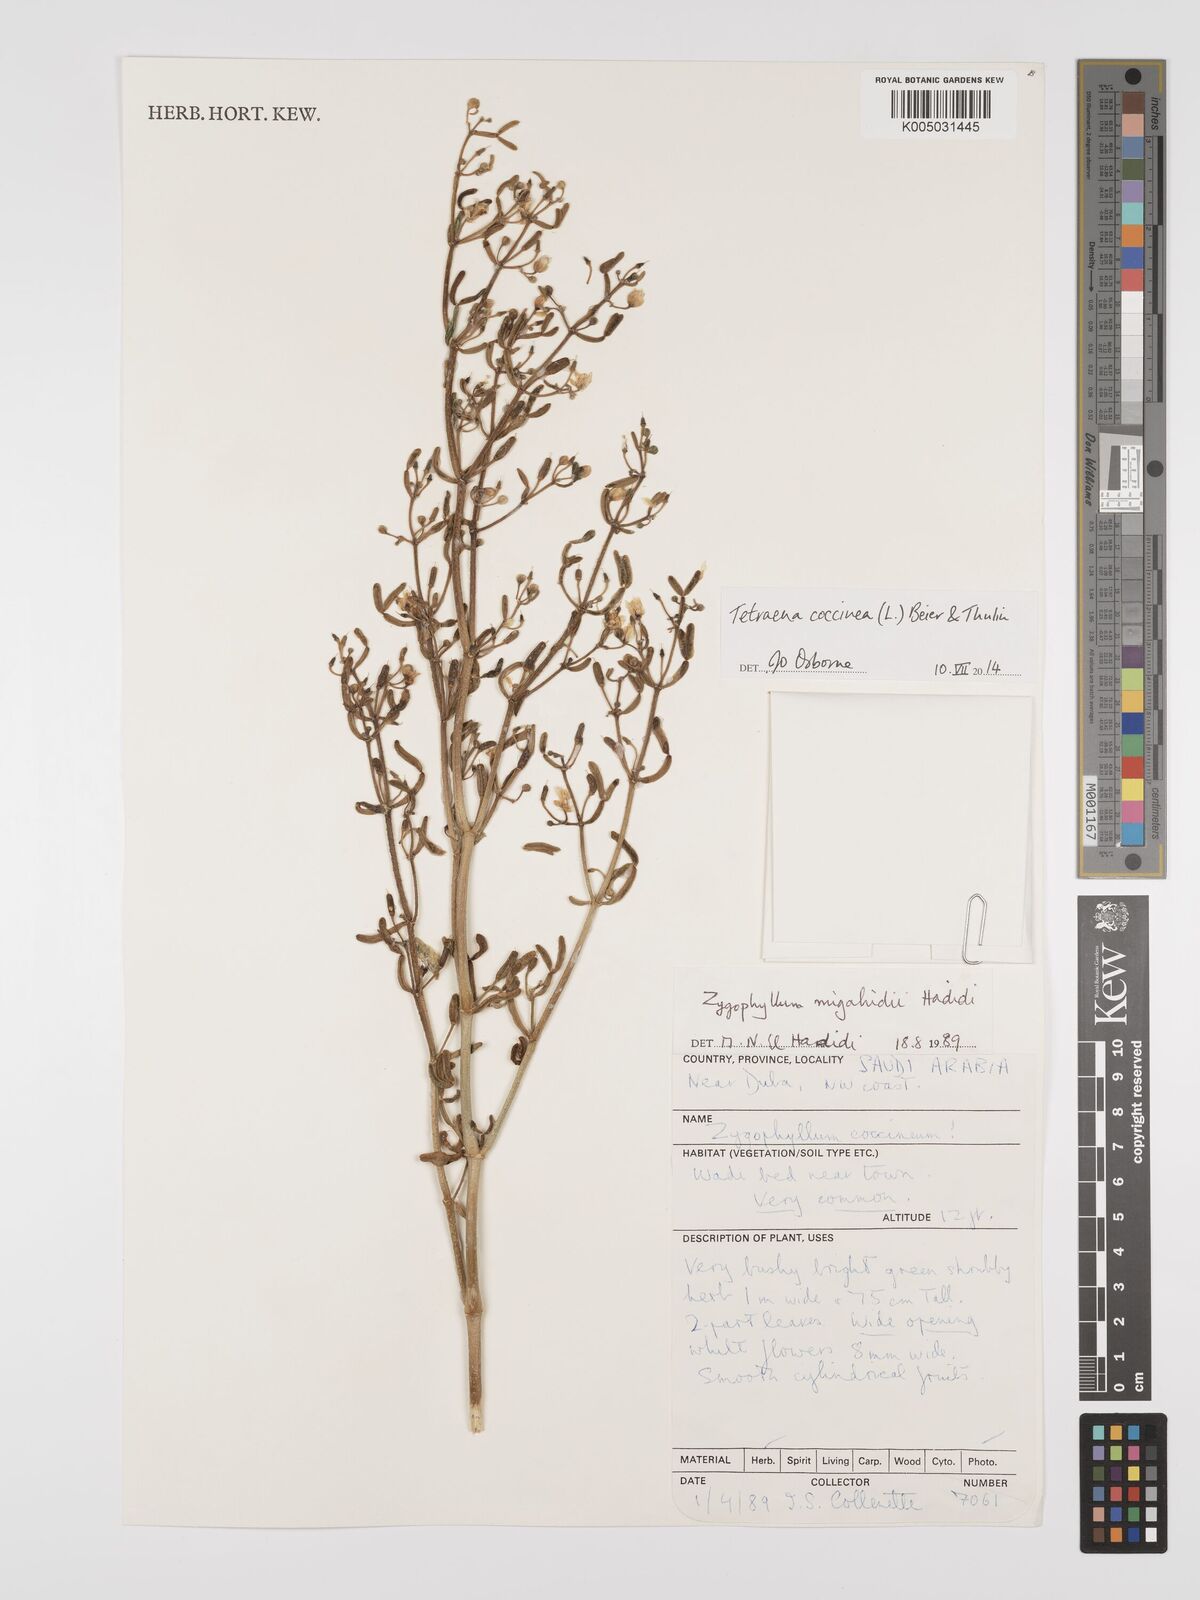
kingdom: Plantae
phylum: Tracheophyta
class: Magnoliopsida
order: Zygophyllales
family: Zygophyllaceae
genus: Zygophyllum
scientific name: Zygophyllum
